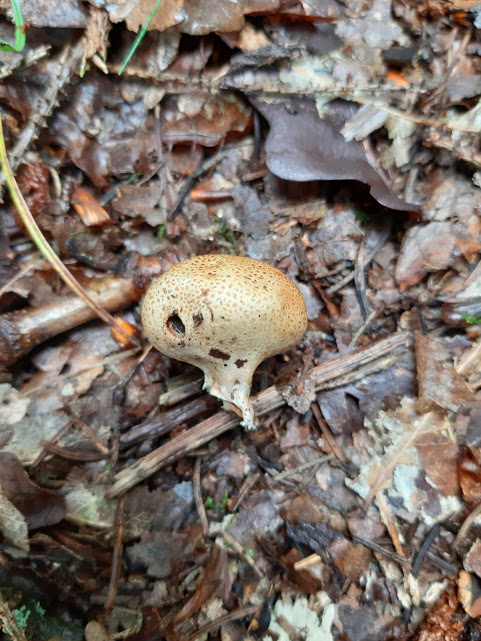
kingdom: Fungi
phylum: Basidiomycota
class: Agaricomycetes
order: Boletales
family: Sclerodermataceae
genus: Scleroderma
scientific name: Scleroderma
